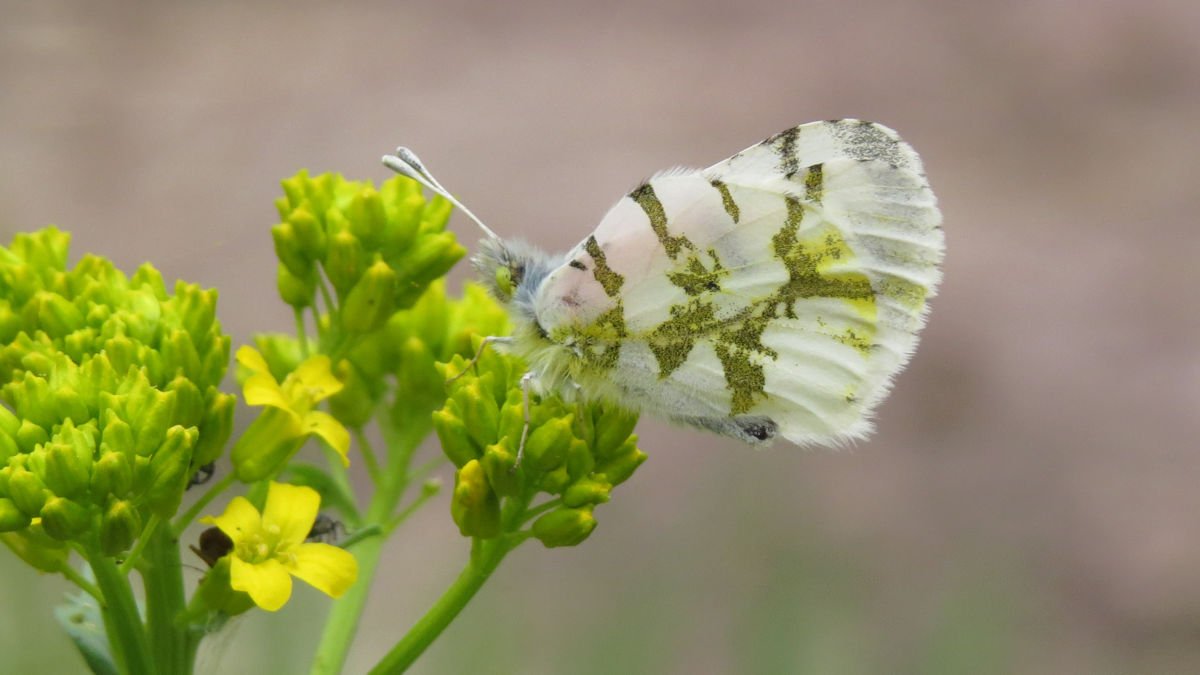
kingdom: Animalia
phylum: Arthropoda
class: Insecta
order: Lepidoptera
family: Pieridae
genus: Euchloe
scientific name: Euchloe olympia
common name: Olympia Marble
